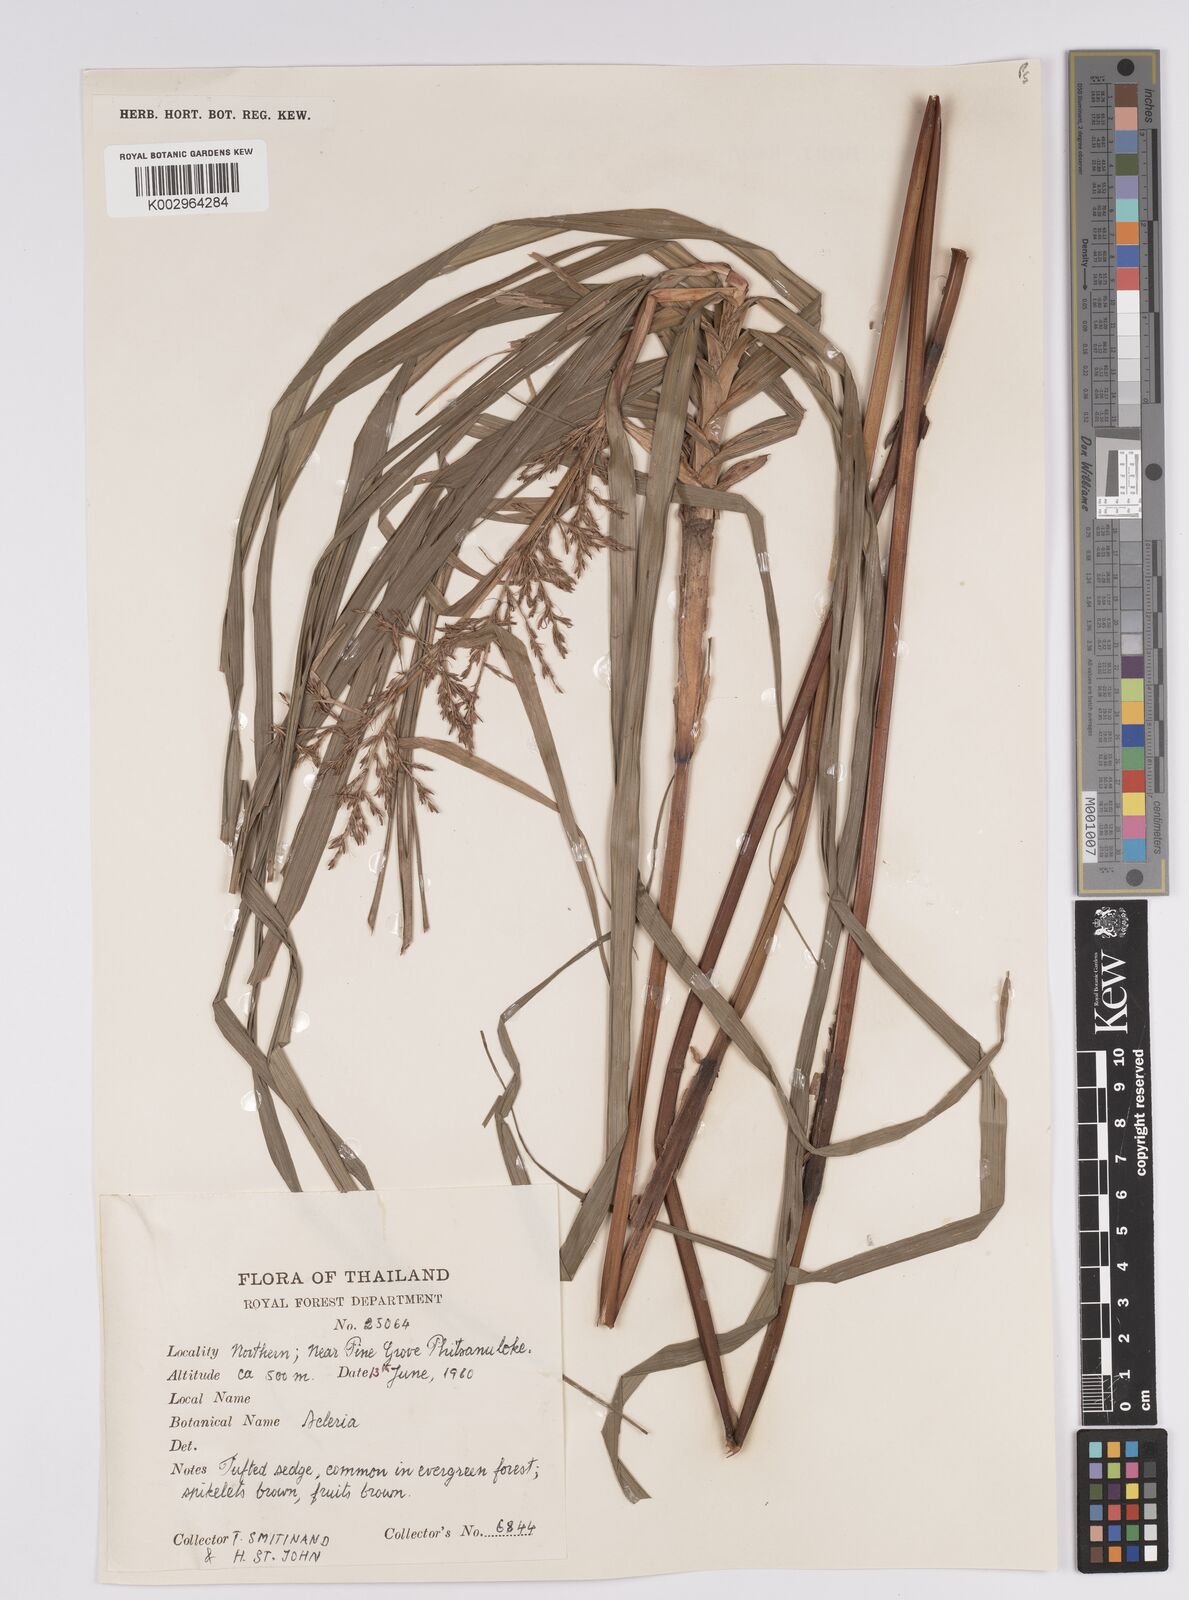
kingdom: Plantae
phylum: Tracheophyta
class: Liliopsida
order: Poales
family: Cyperaceae
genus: Scleria
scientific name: Scleria
